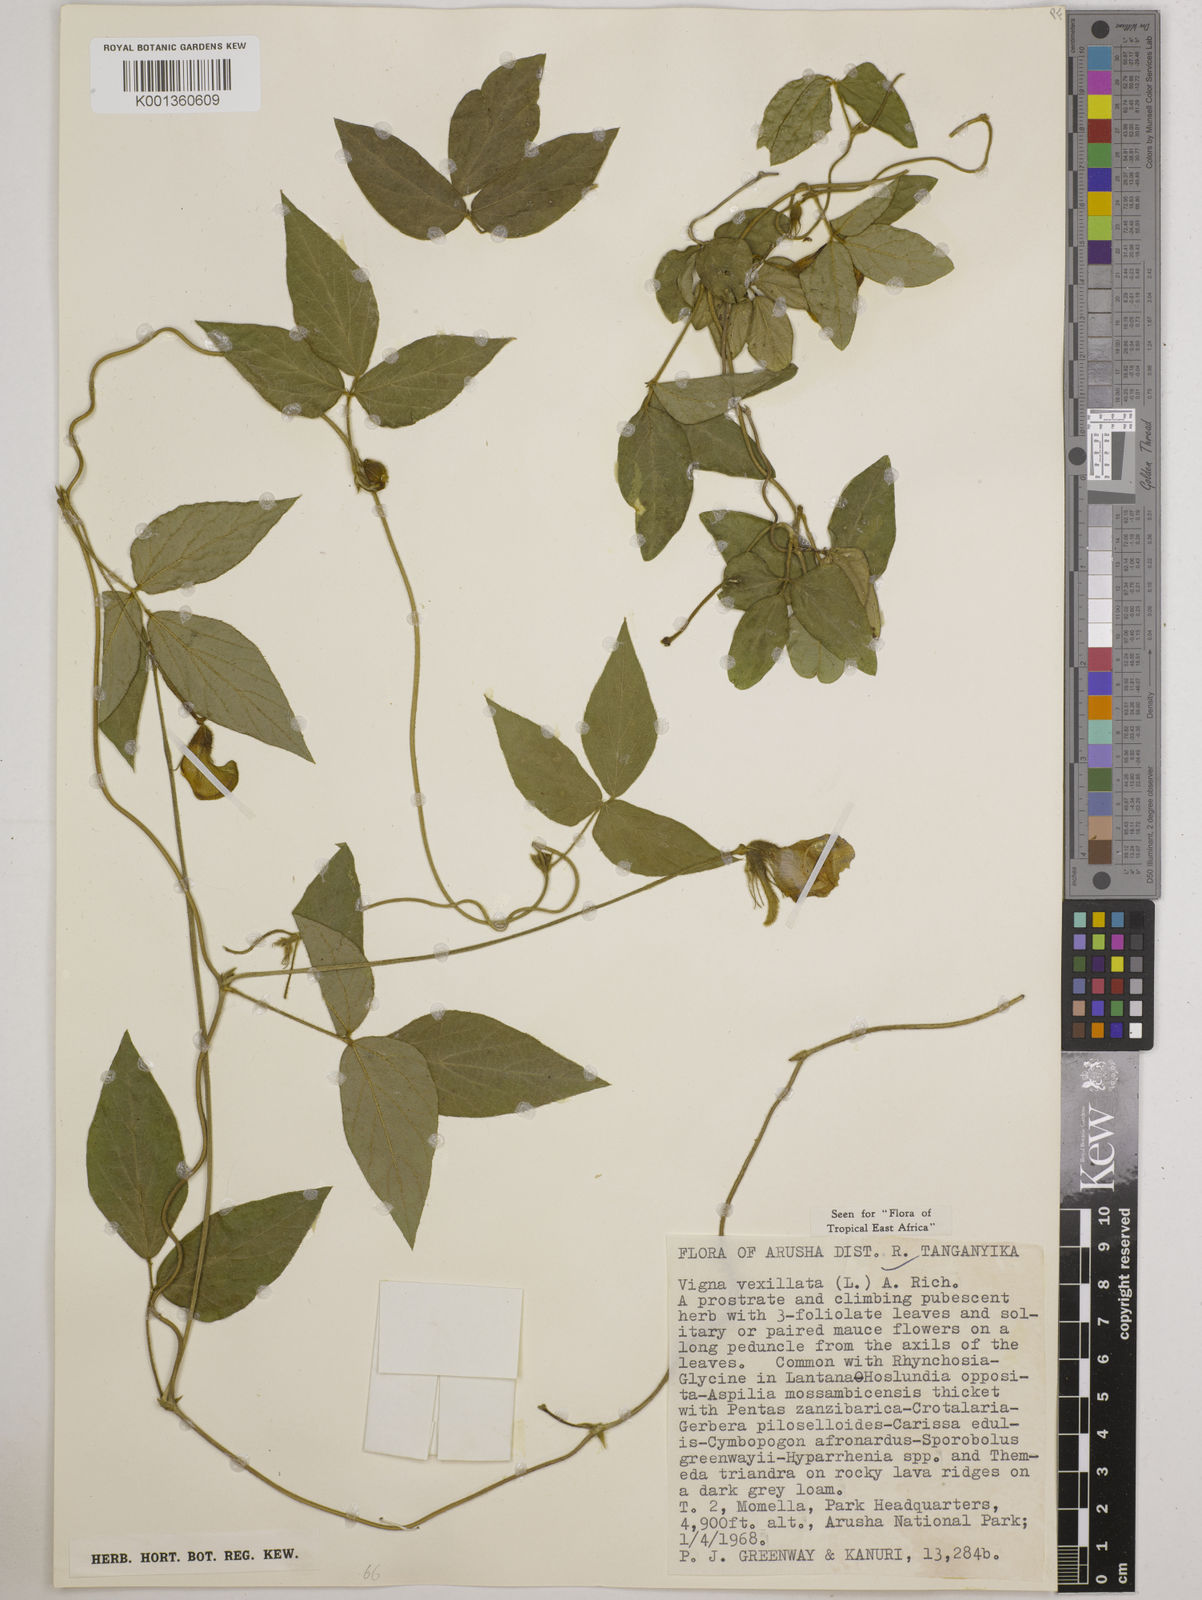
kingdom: Plantae
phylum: Tracheophyta
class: Magnoliopsida
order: Fabales
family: Fabaceae
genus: Vigna
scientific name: Vigna vexillata
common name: Zombi pea
